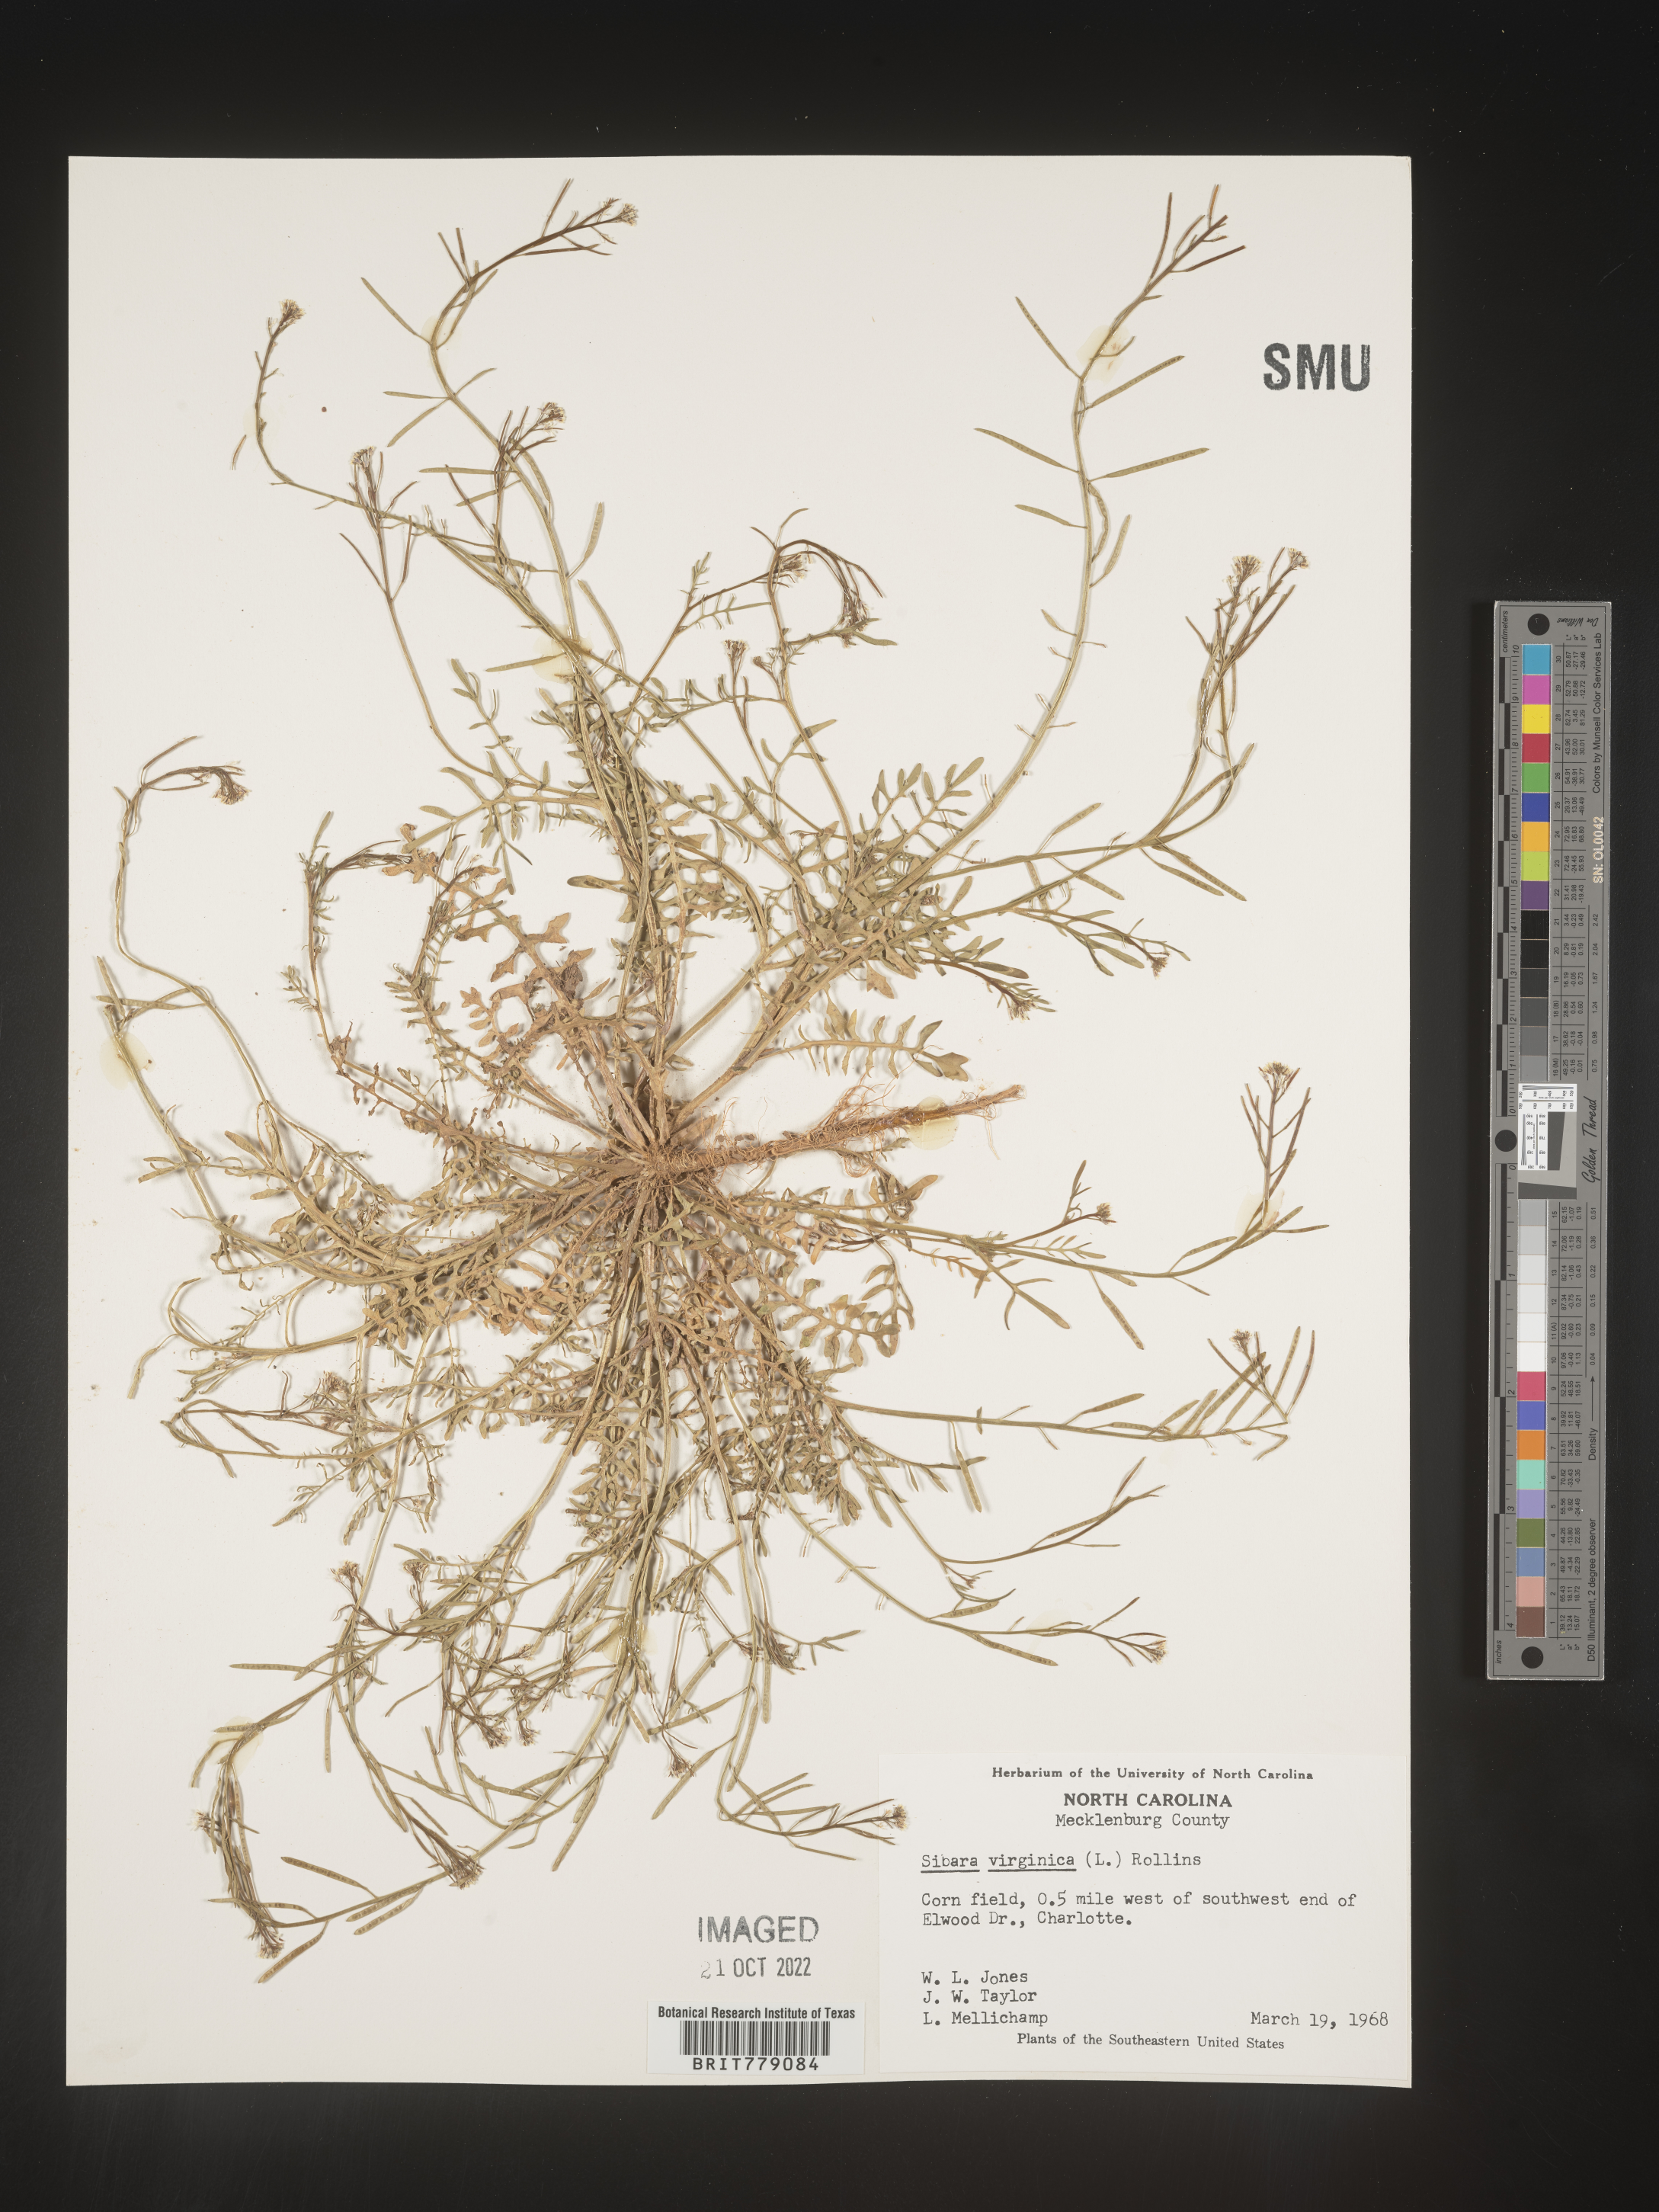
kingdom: Plantae
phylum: Tracheophyta
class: Magnoliopsida
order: Brassicales
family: Brassicaceae
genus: Sibara
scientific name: Sibara
